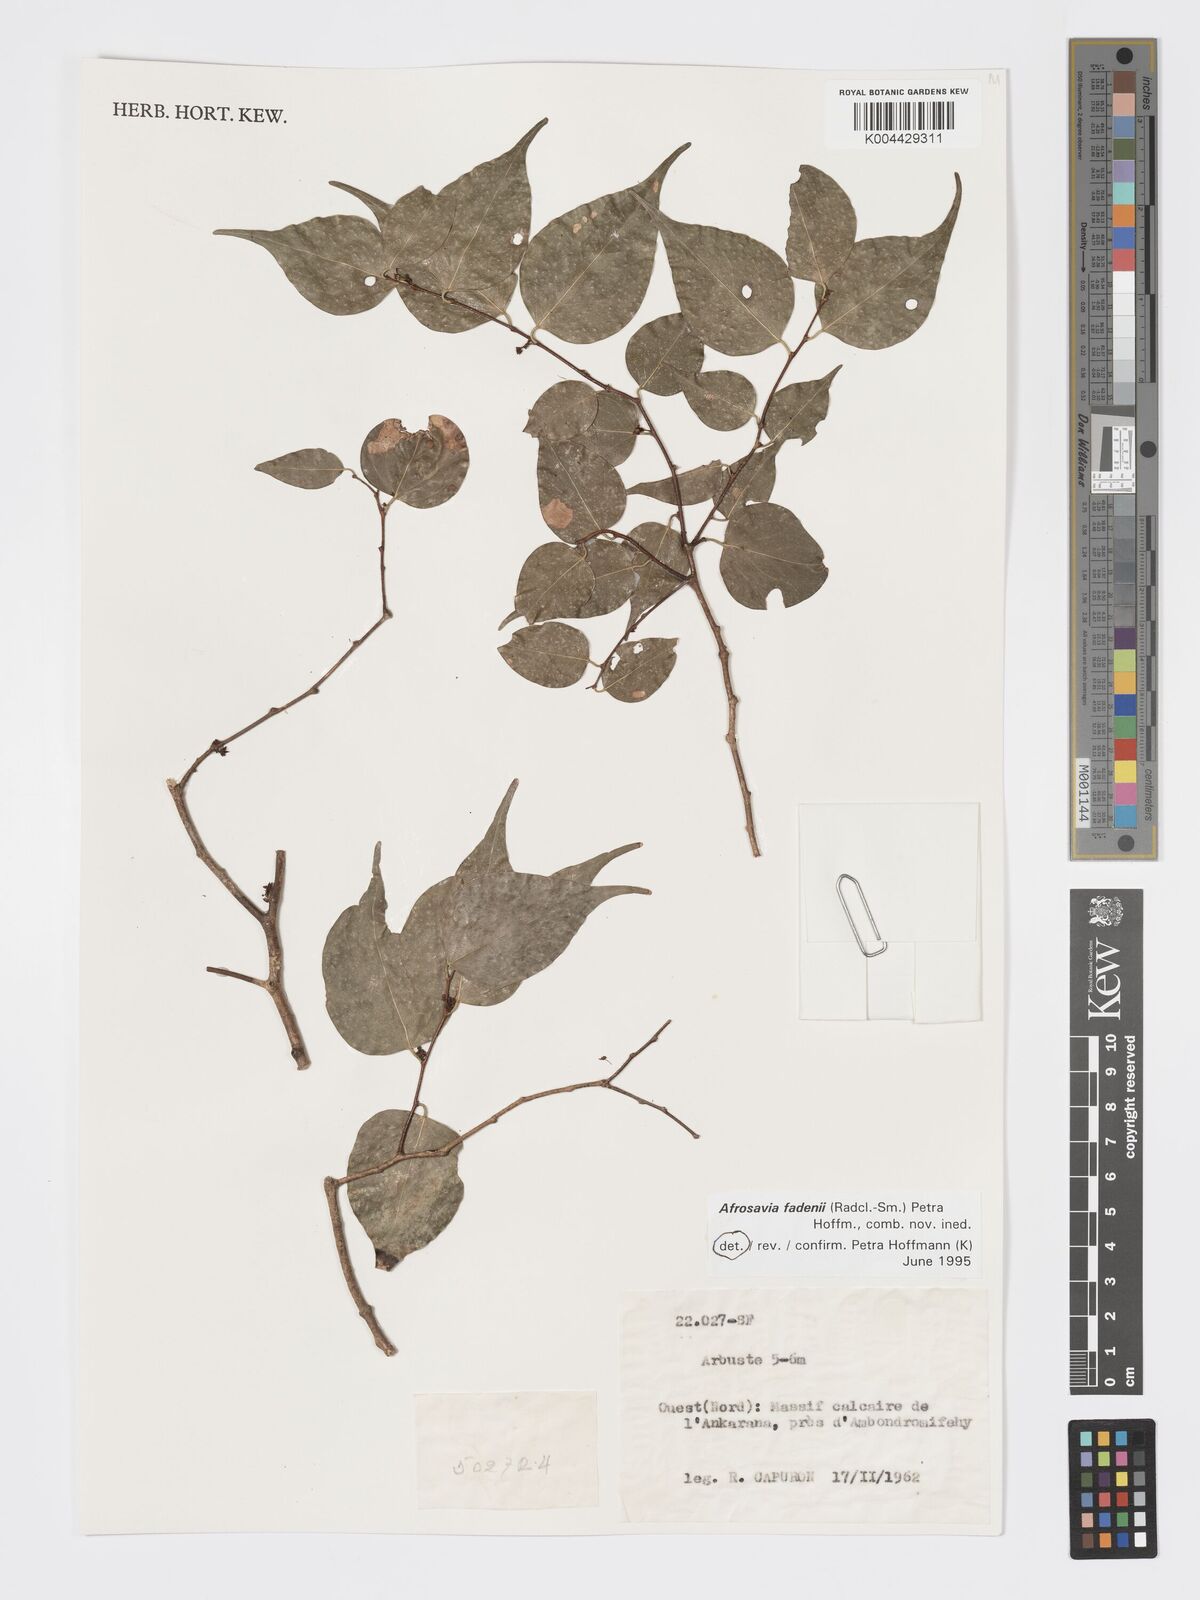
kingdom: Plantae
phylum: Tracheophyta
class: Magnoliopsida
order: Malpighiales
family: Phyllanthaceae
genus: Wielandia
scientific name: Wielandia fadenii
